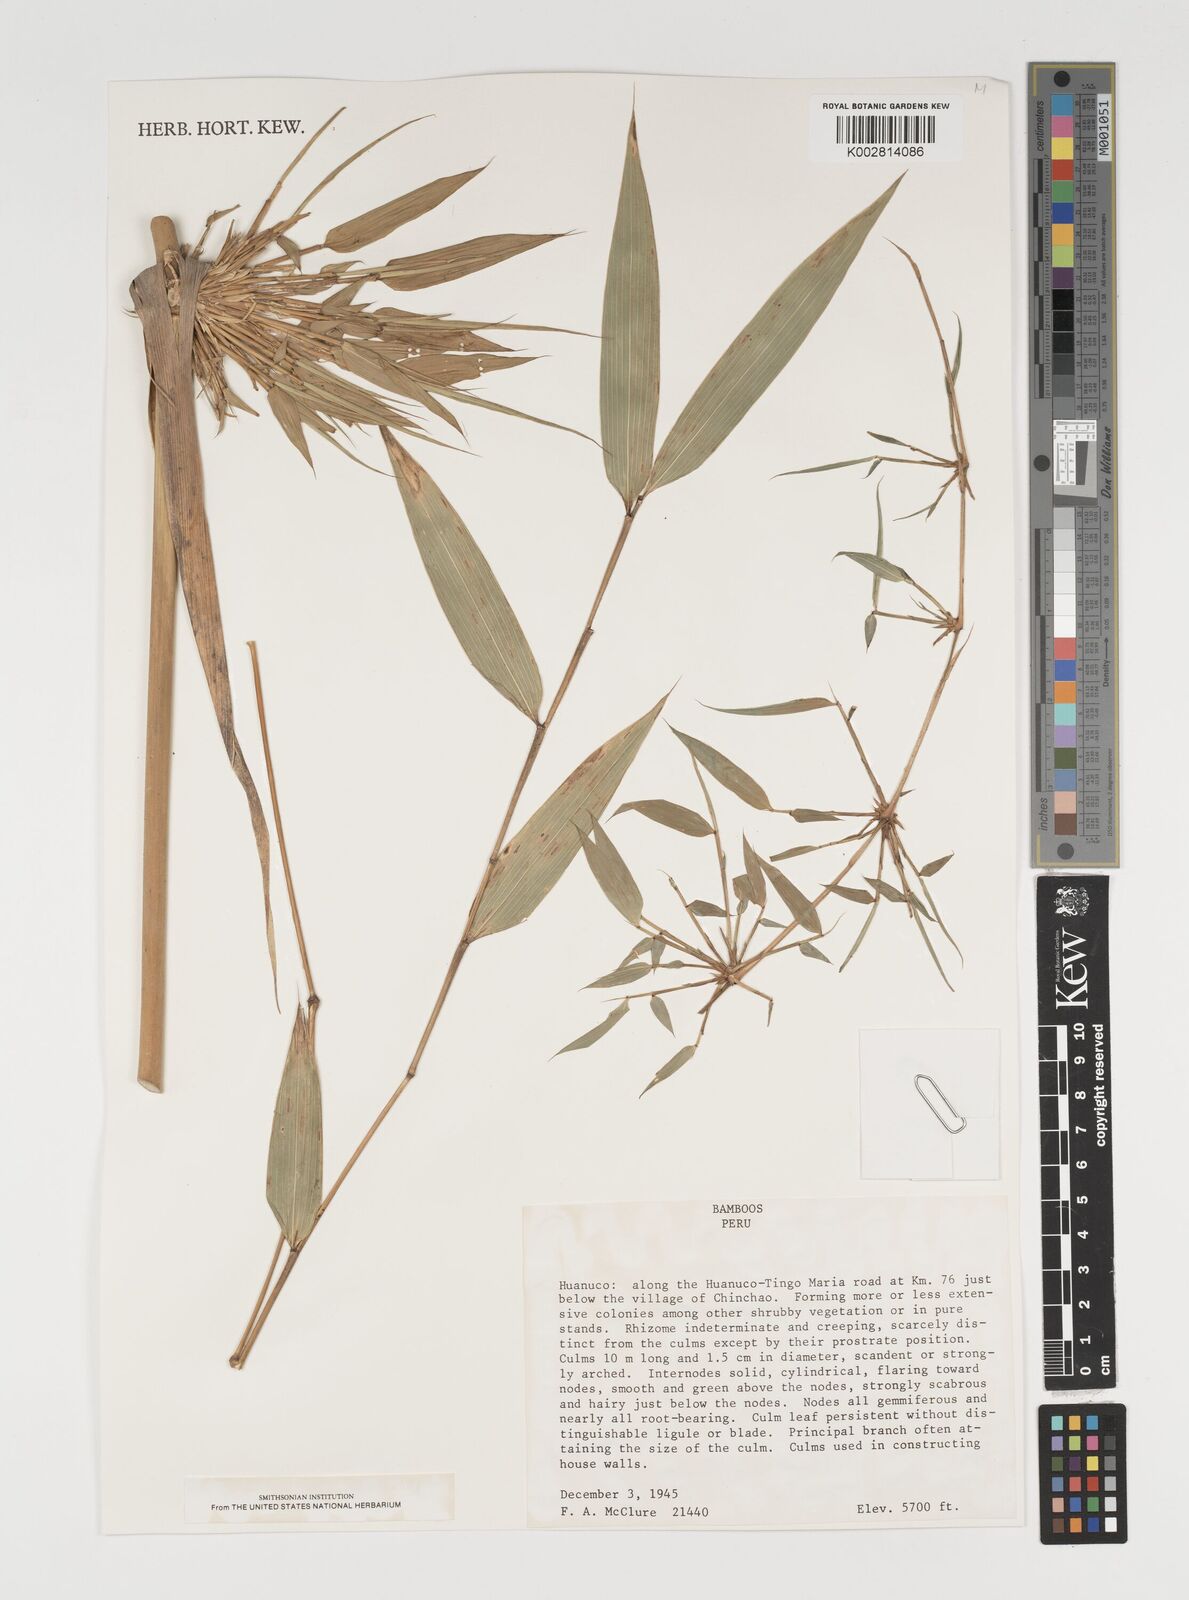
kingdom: Plantae
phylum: Tracheophyta
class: Liliopsida
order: Poales
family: Poaceae
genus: Chusquea
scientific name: Chusquea
